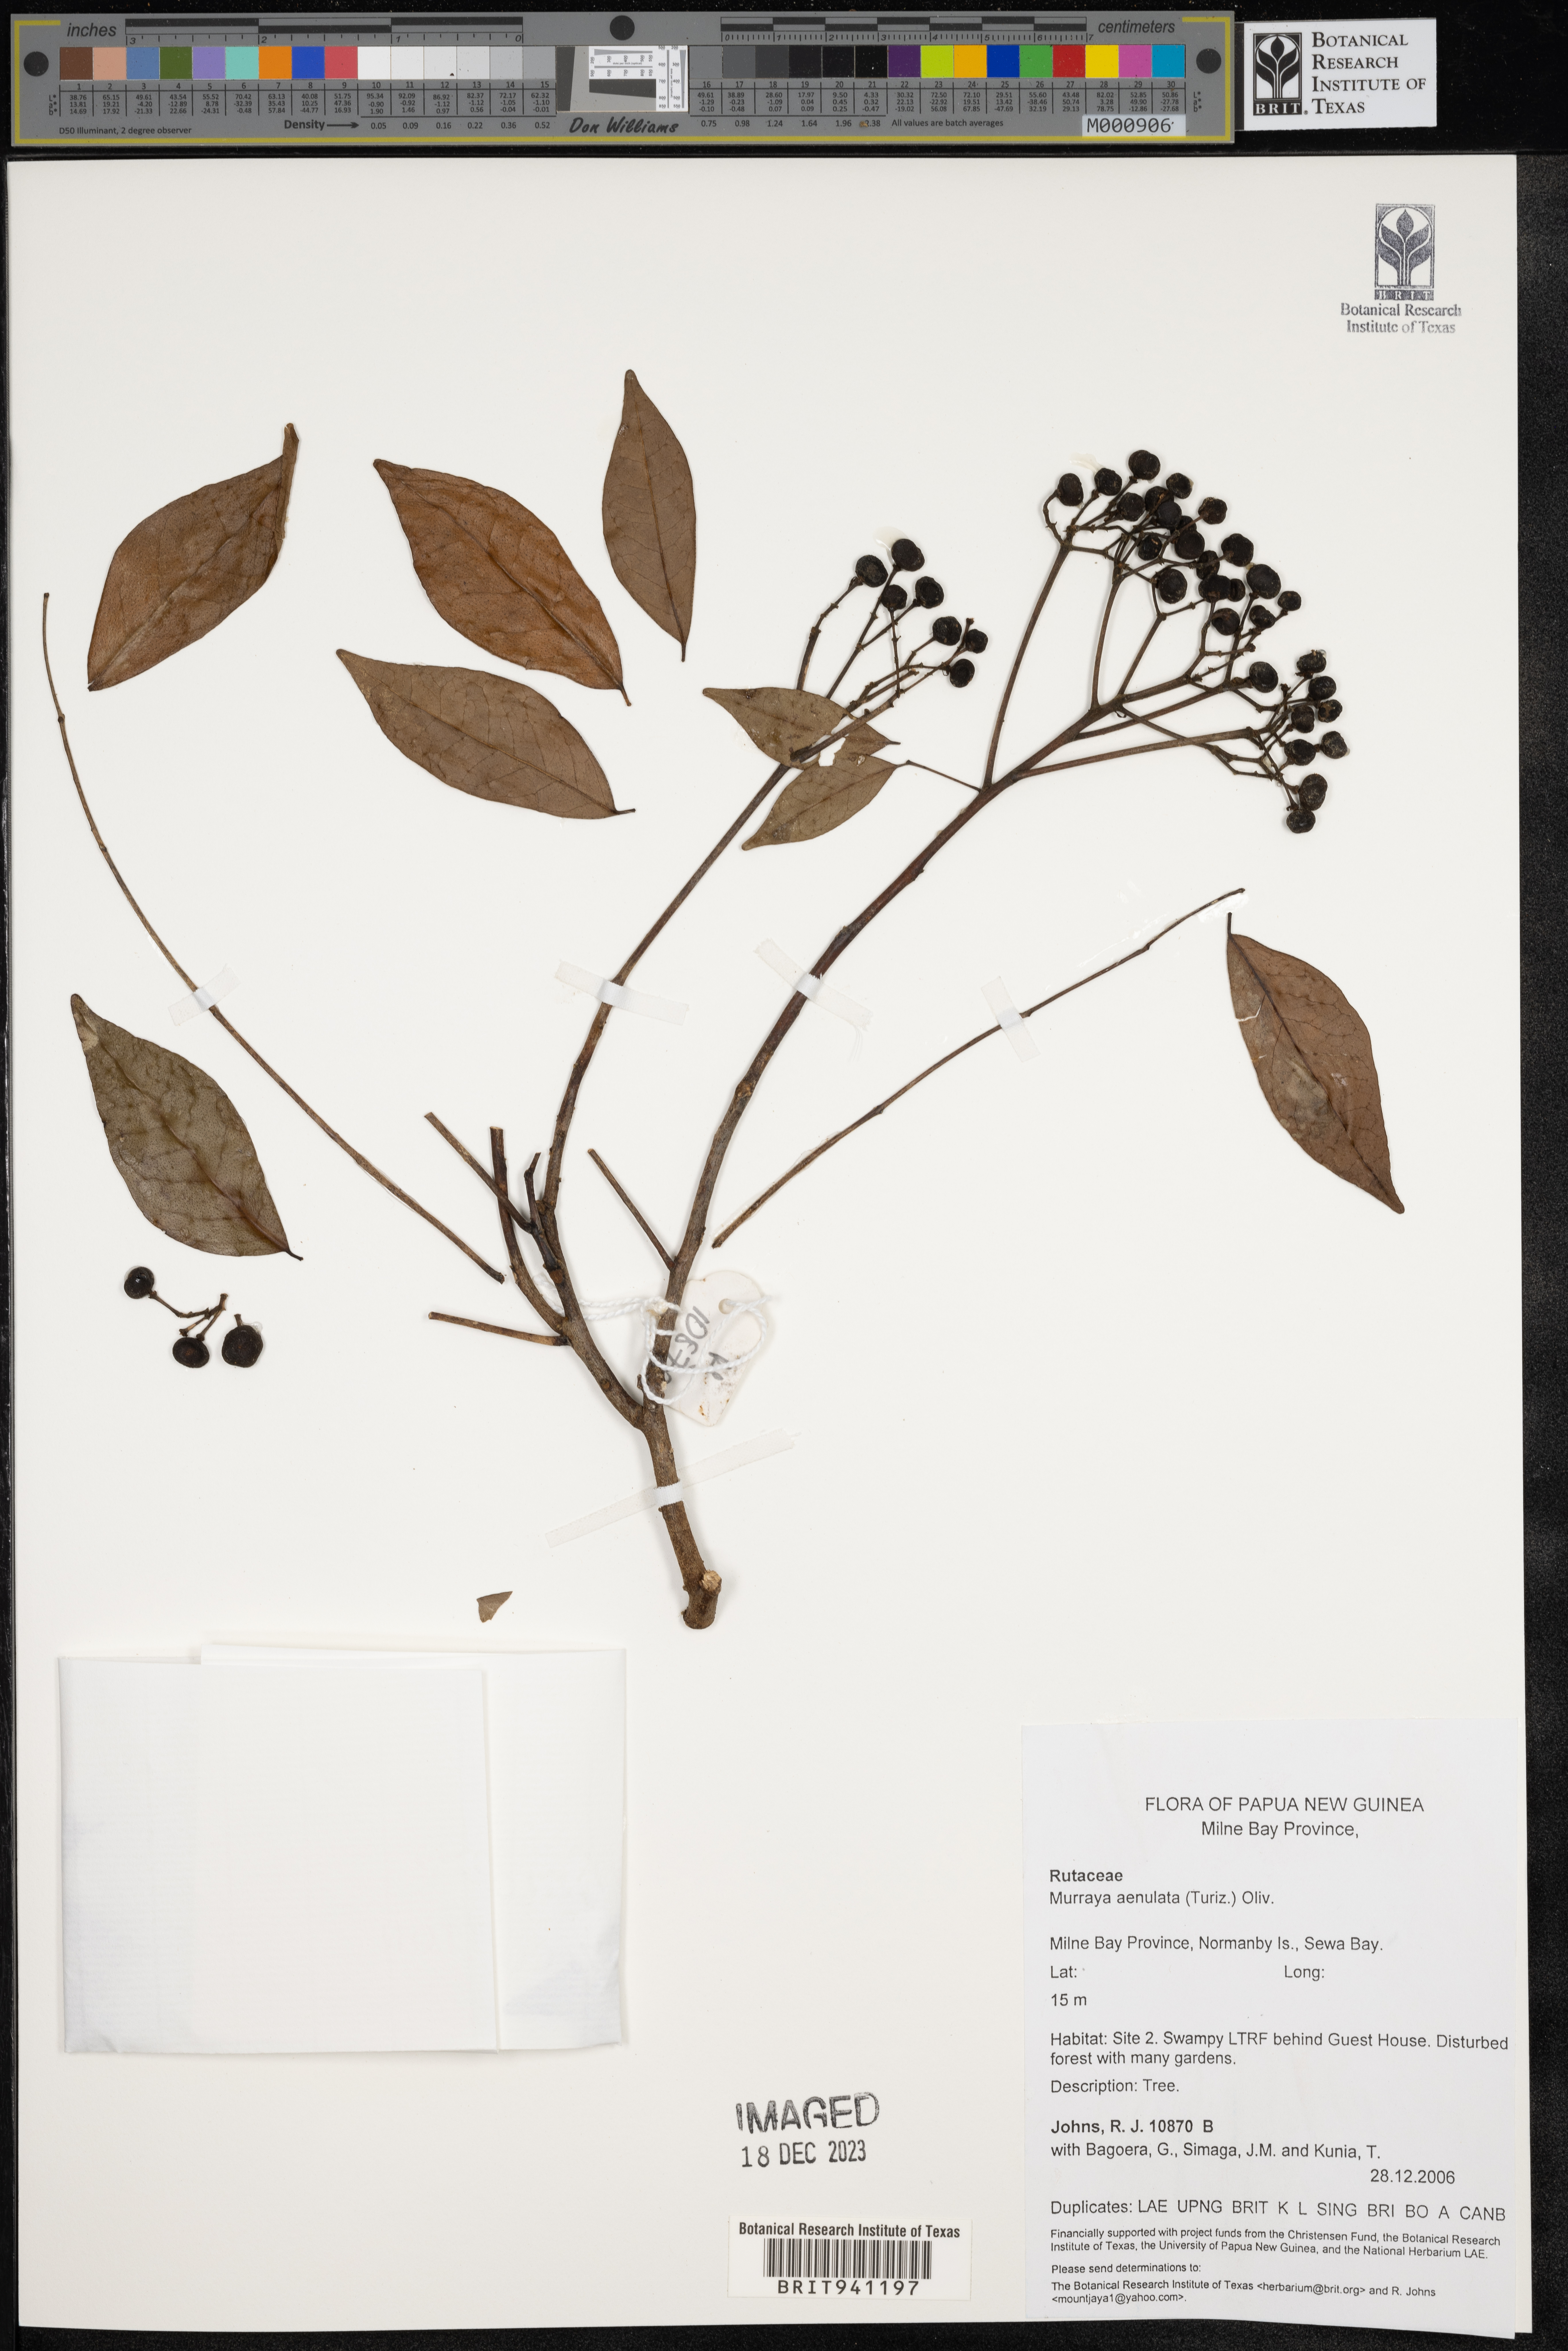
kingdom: Plantae
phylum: Tracheophyta
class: Magnoliopsida
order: Sapindales
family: Rutaceae
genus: Murraya
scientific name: Murraya
